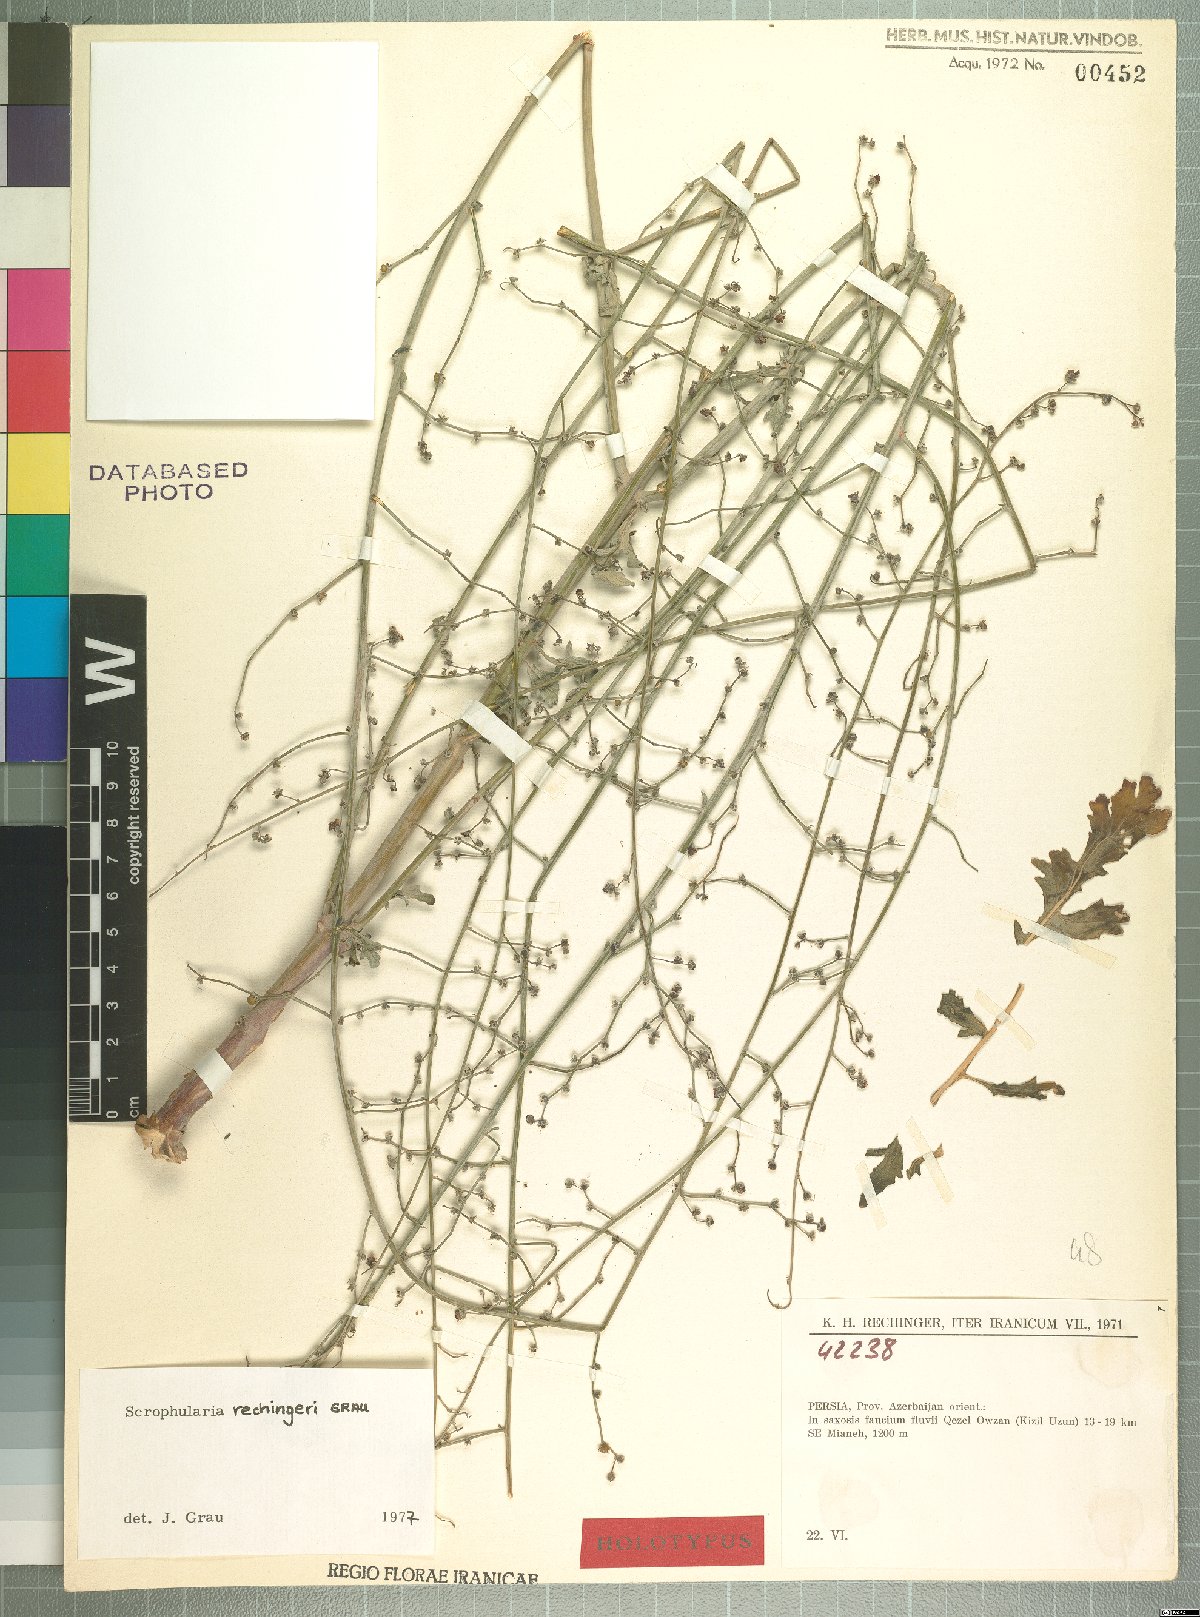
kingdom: Plantae
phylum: Tracheophyta
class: Magnoliopsida
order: Lamiales
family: Scrophulariaceae
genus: Scrophularia
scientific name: Scrophularia rechingeri
